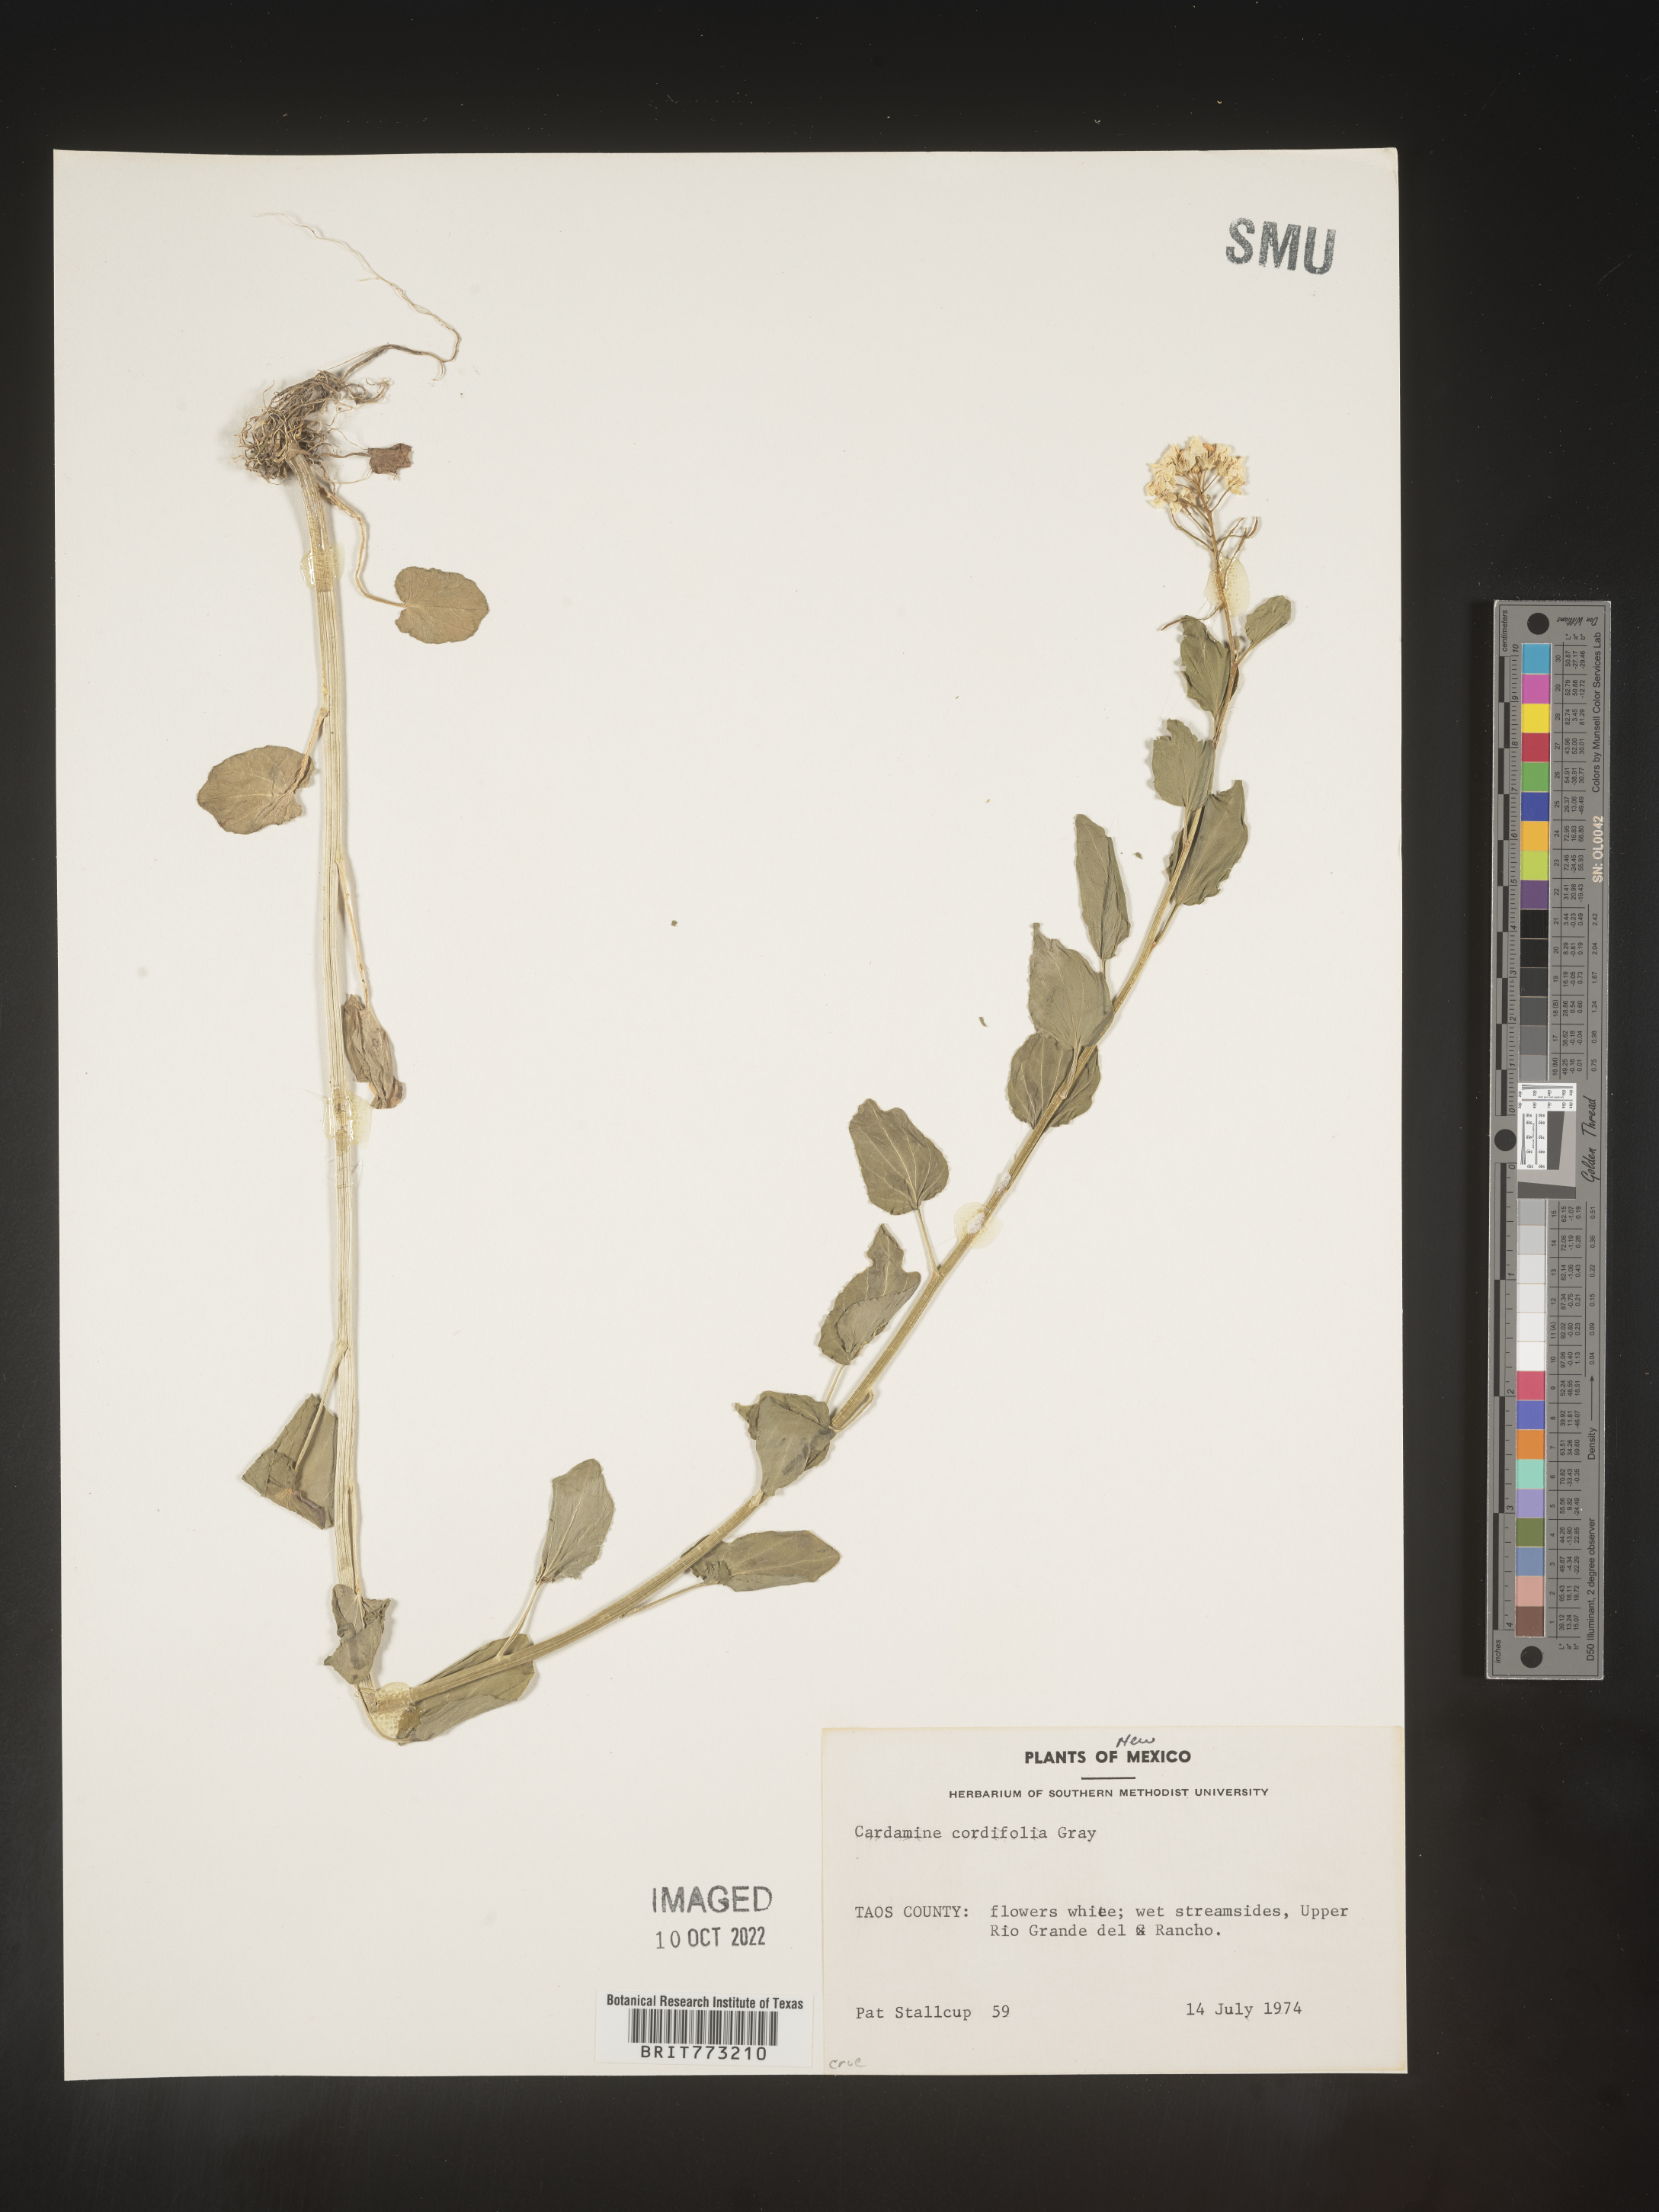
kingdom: Plantae
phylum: Tracheophyta
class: Magnoliopsida
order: Brassicales
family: Brassicaceae
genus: Cardamine
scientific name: Cardamine
